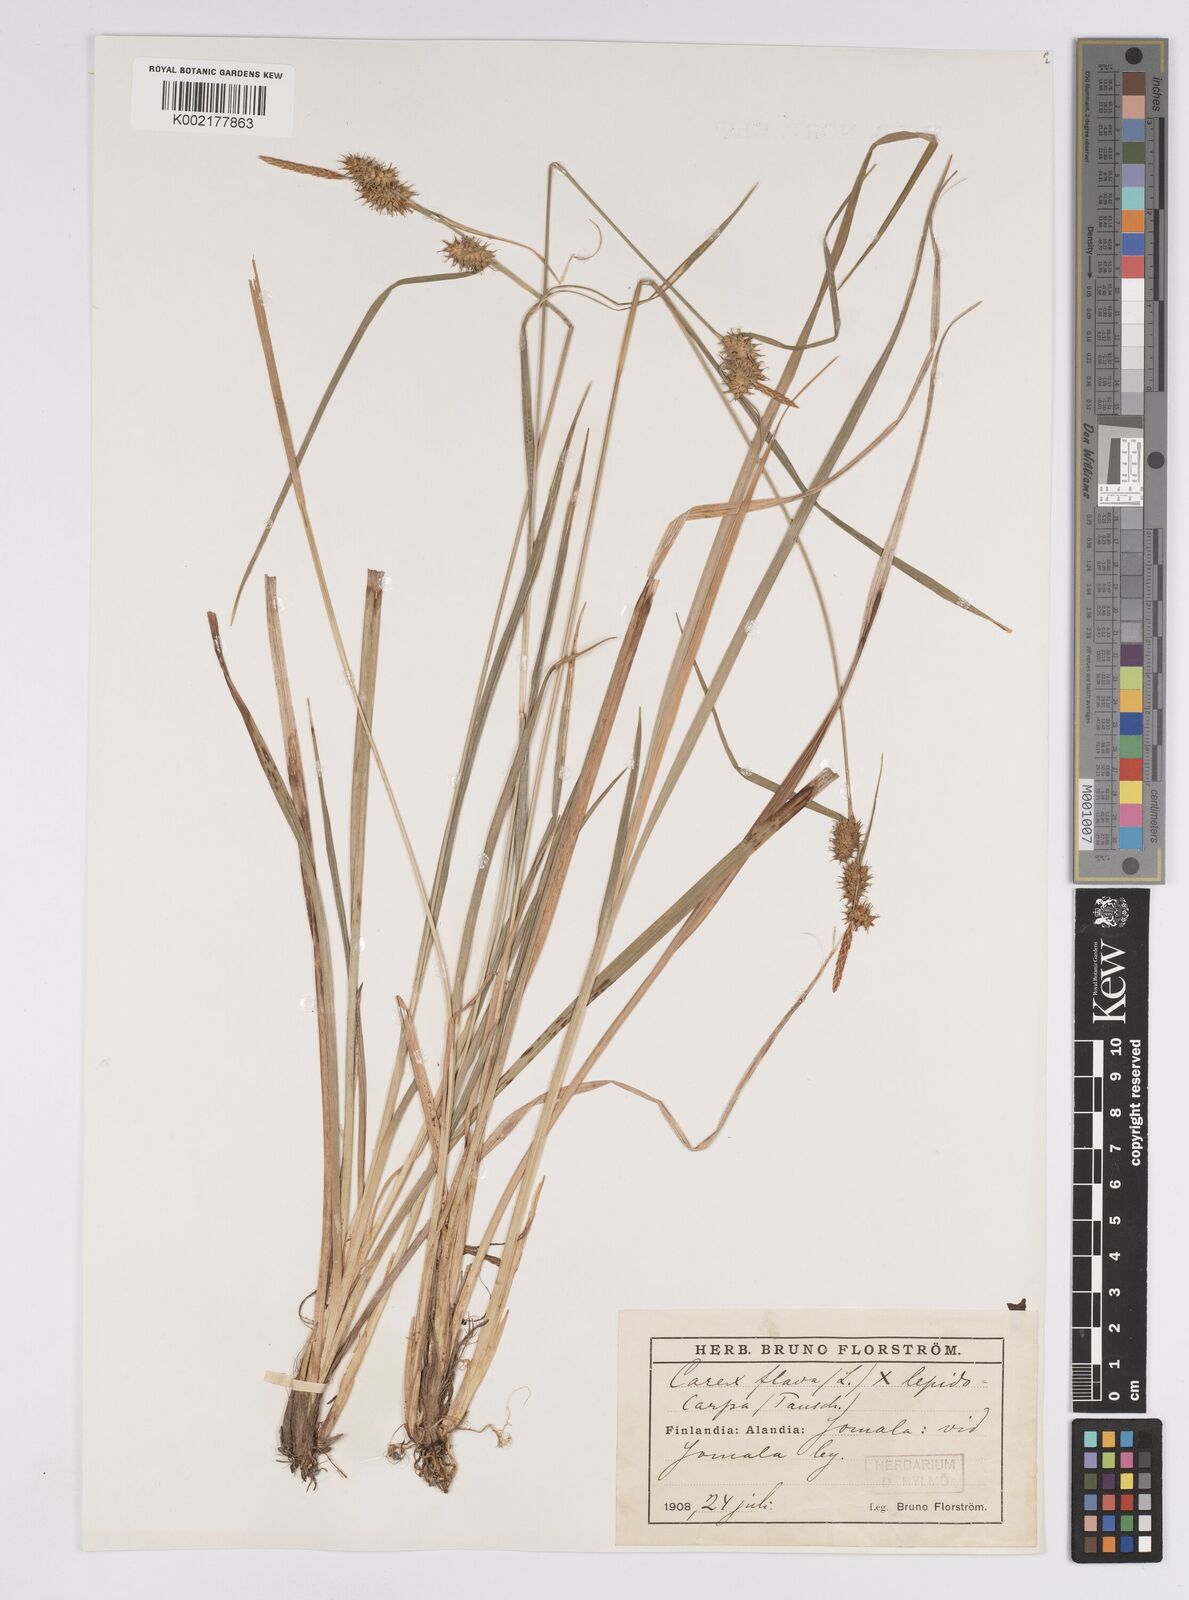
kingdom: Plantae
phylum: Tracheophyta
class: Liliopsida
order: Poales
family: Cyperaceae
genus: Carex
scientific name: Carex flava
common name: Large yellow-sedge
